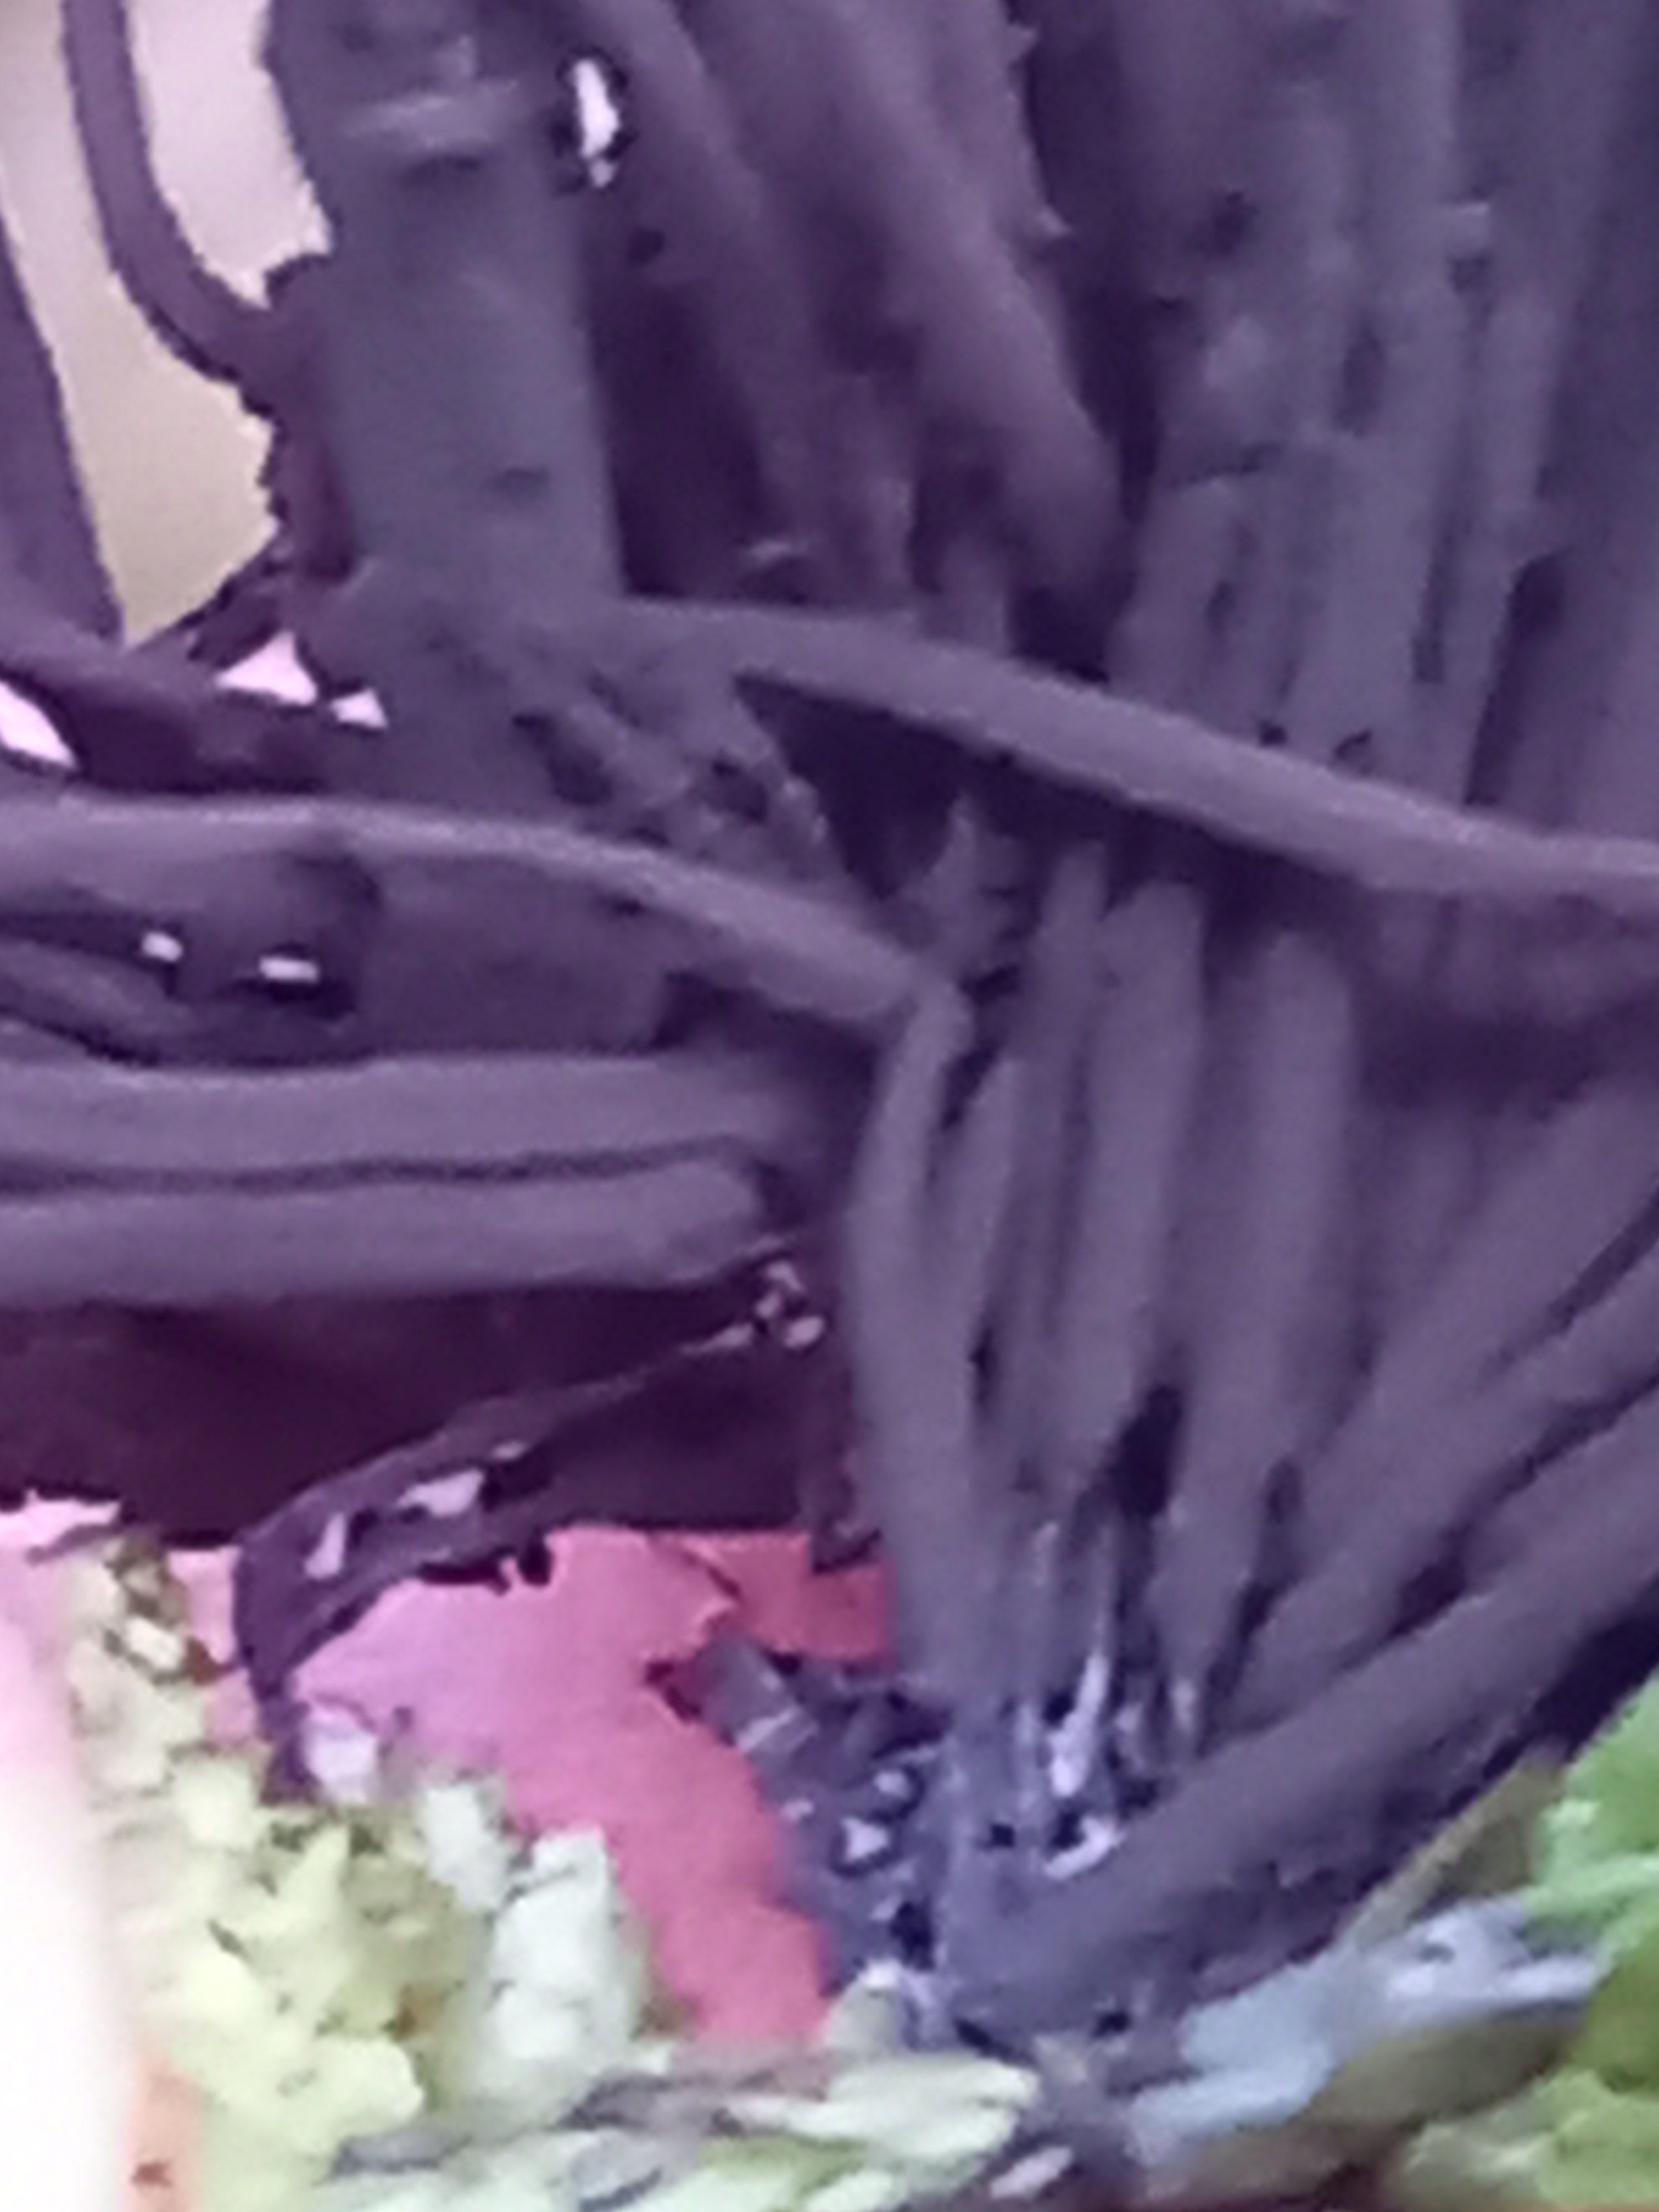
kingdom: Protozoa
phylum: Mycetozoa
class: Myxomycetes
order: Stemonitidales
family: Stemonitidaceae
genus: Stemonitis
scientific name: Stemonitis
